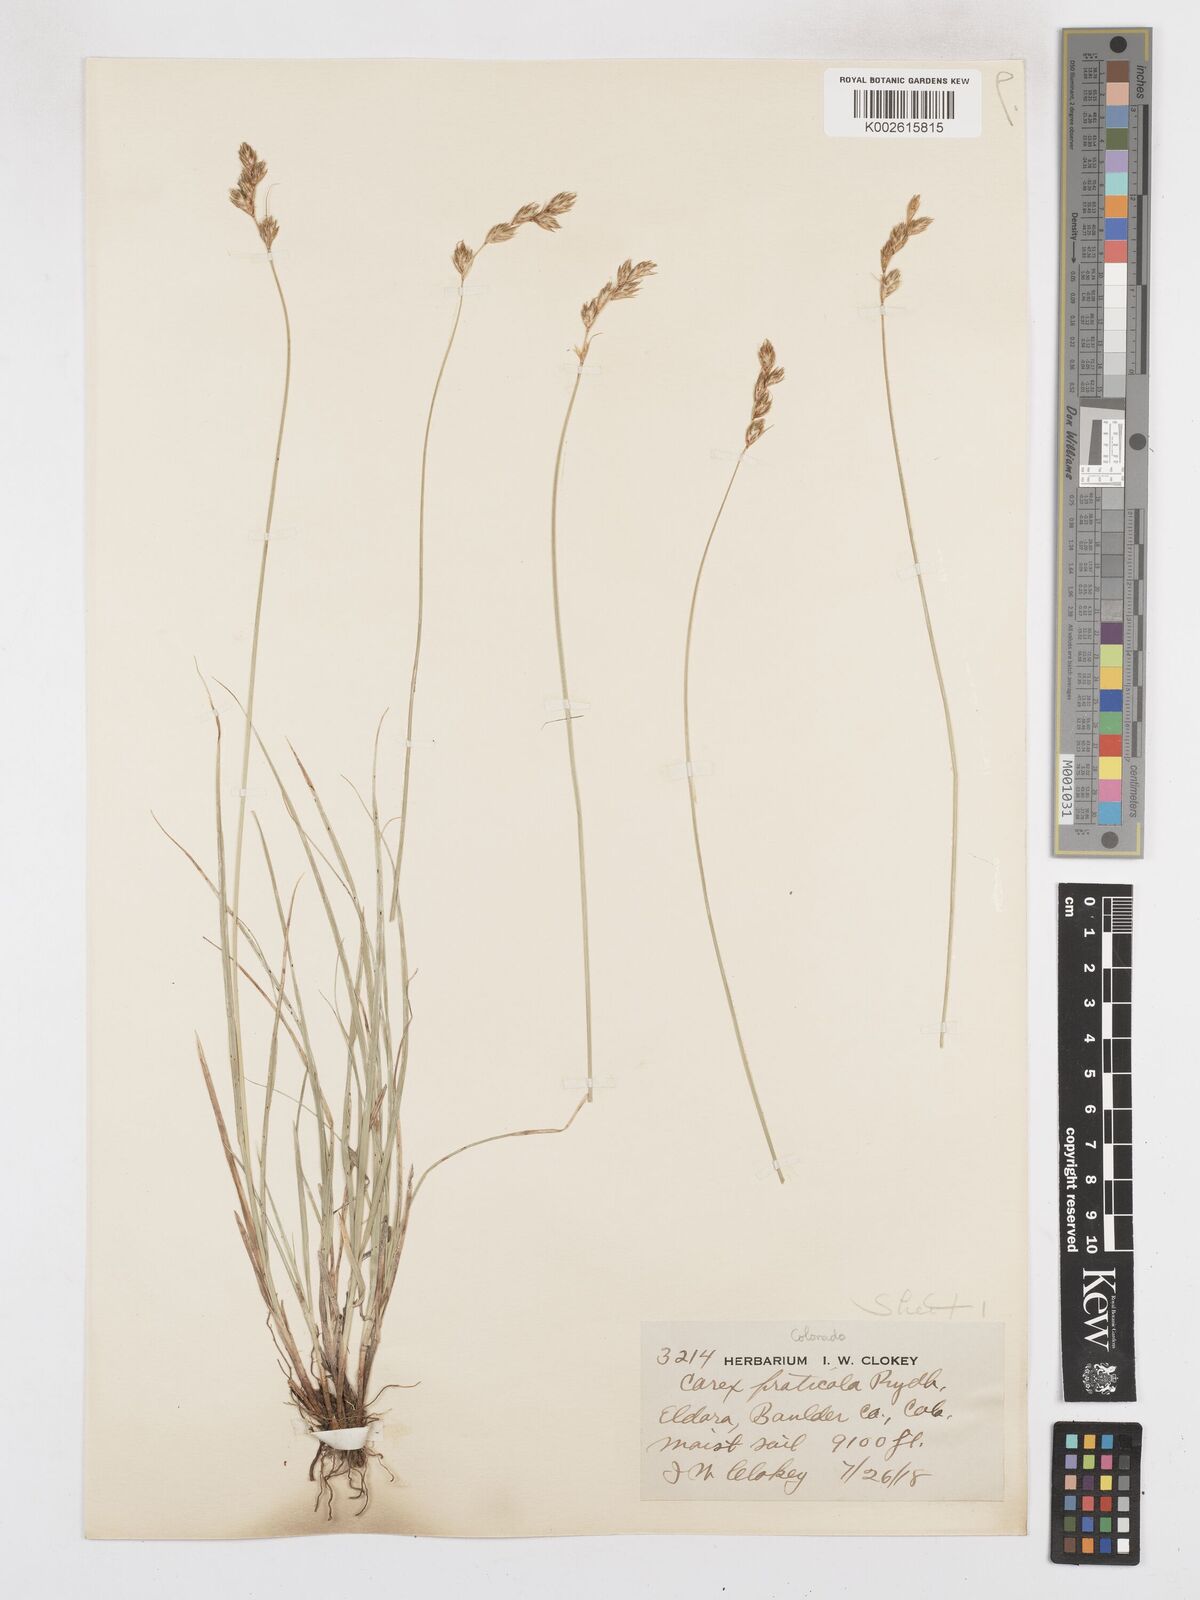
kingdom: Plantae
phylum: Tracheophyta
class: Liliopsida
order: Poales
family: Cyperaceae
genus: Carex
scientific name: Carex praticola
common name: Large-fruited oval sedge
